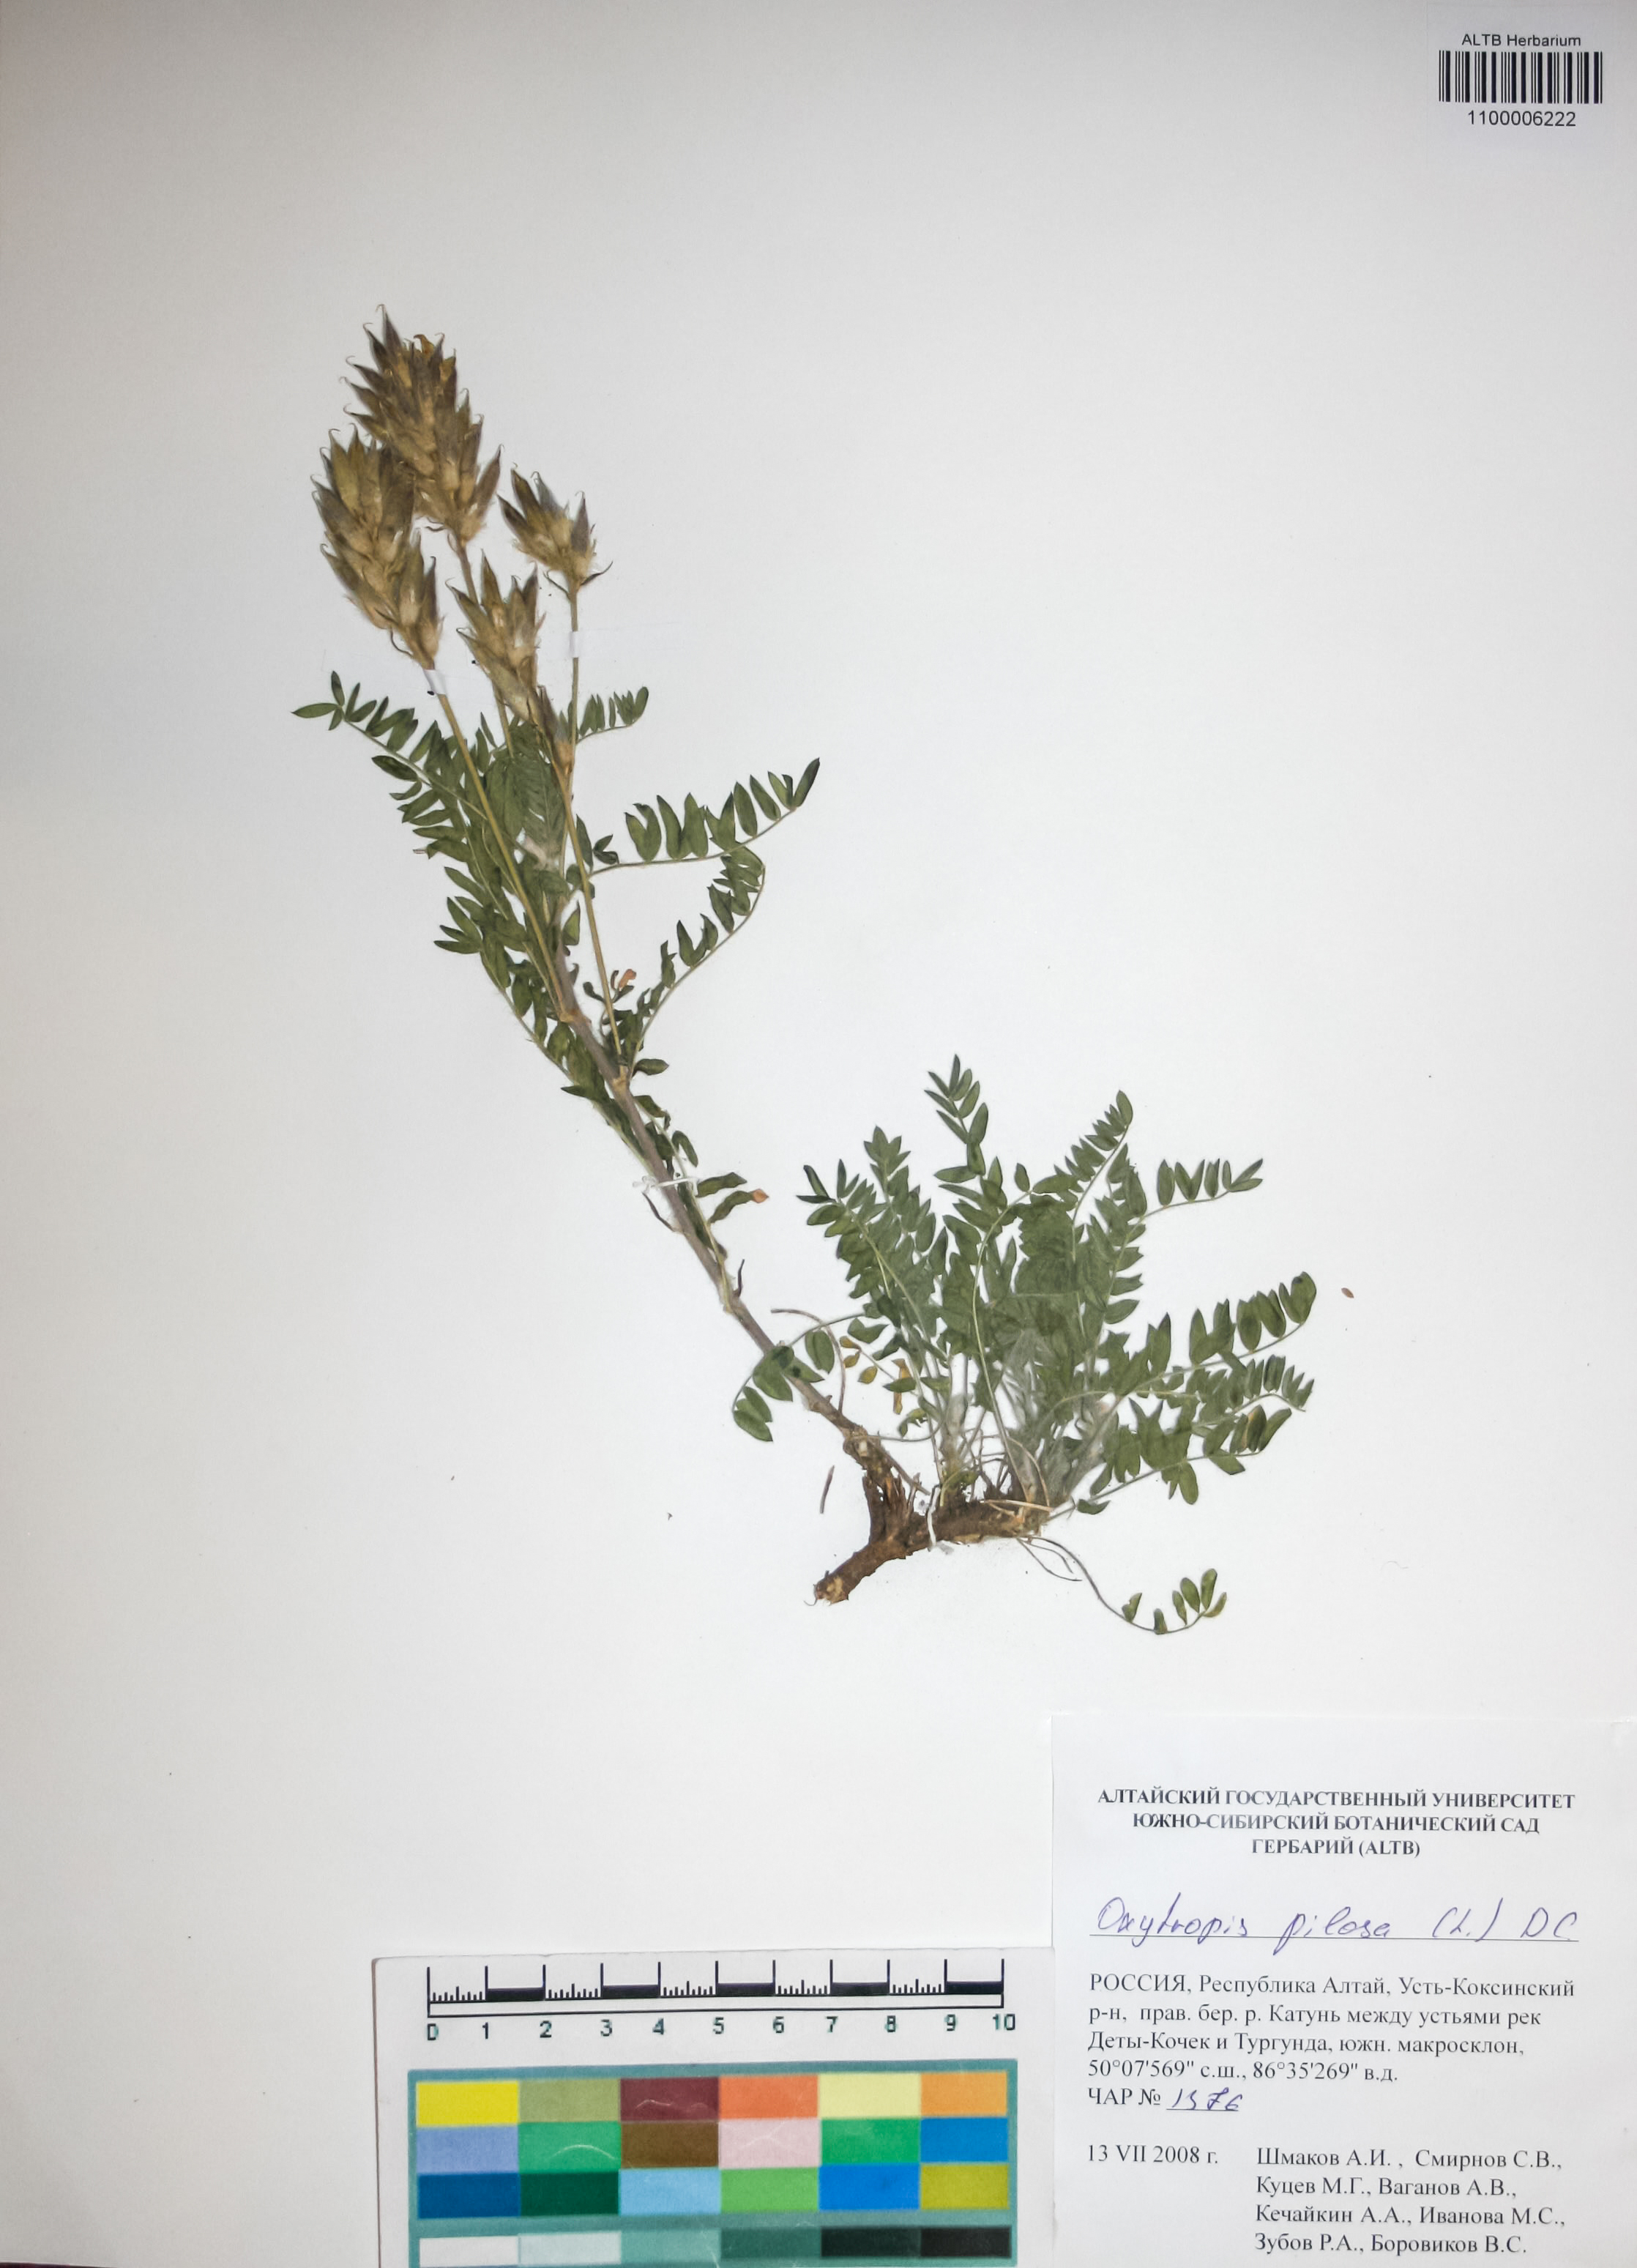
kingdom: Plantae
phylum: Tracheophyta
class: Magnoliopsida
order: Fabales
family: Fabaceae
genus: Oxytropis
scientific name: Oxytropis pilosa
